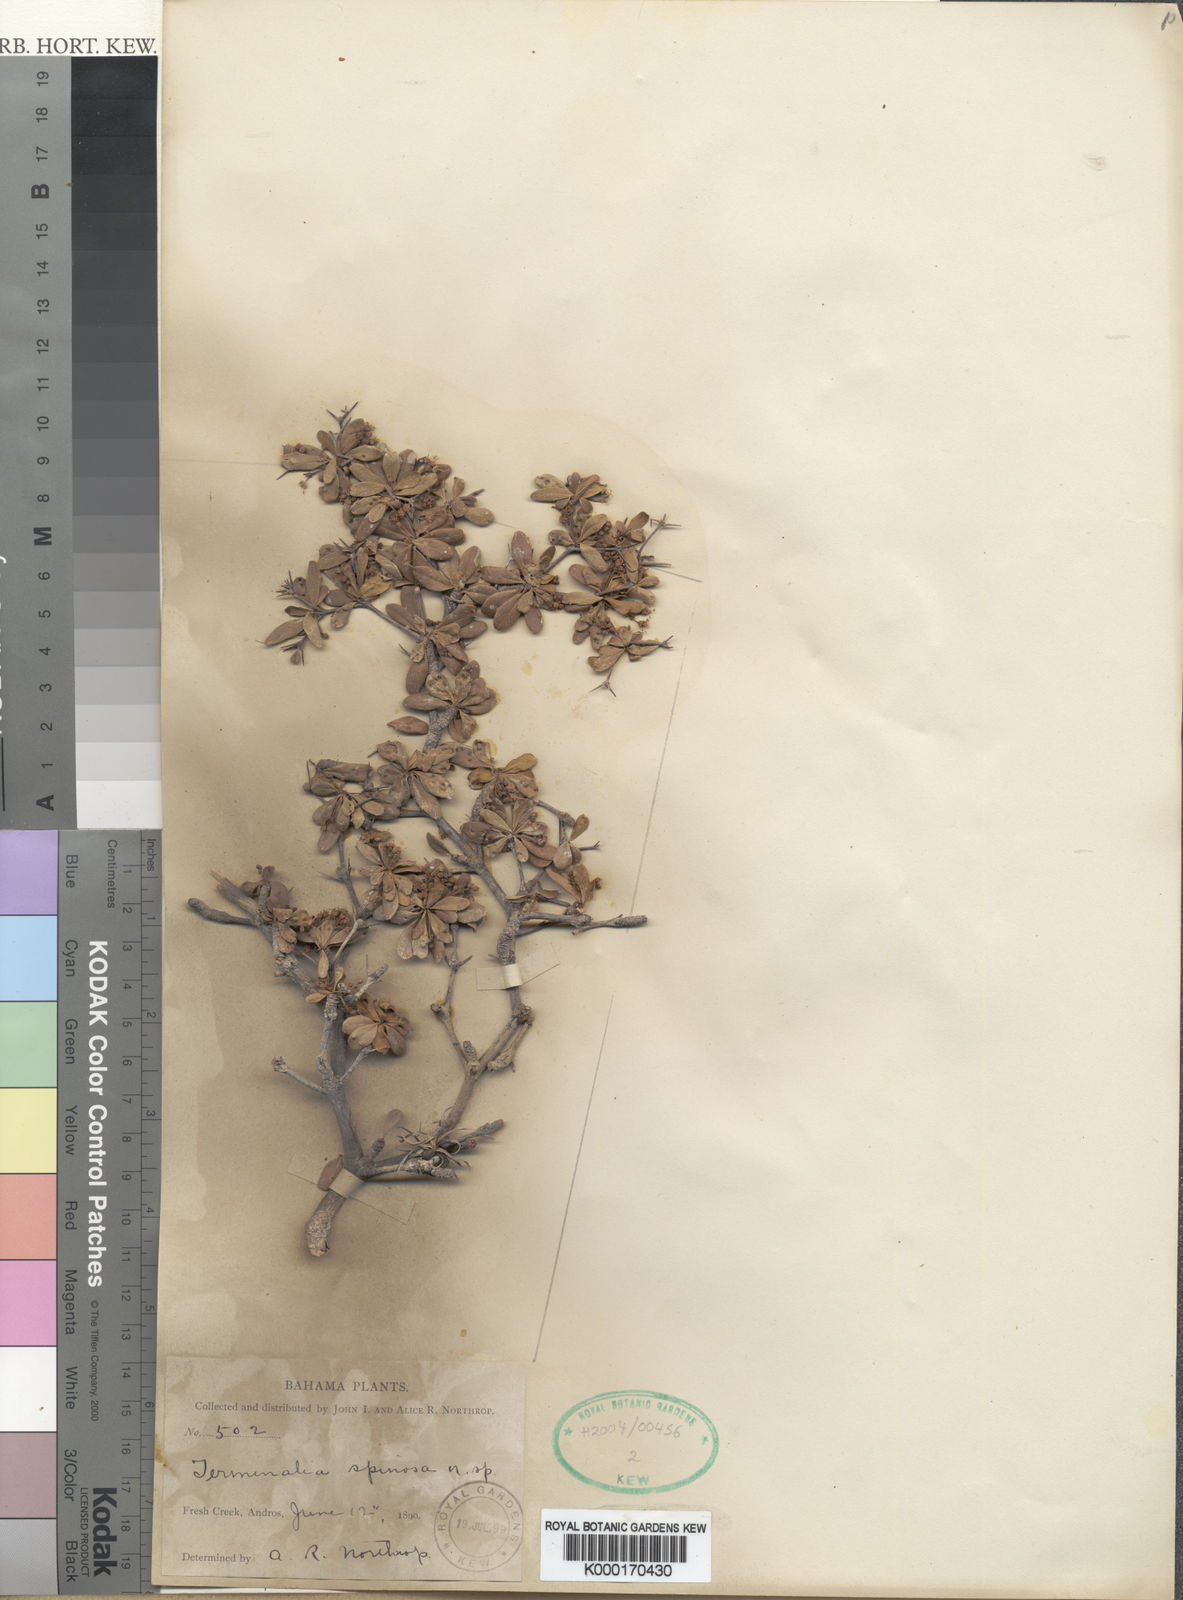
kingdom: Plantae
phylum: Tracheophyta
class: Magnoliopsida
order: Myrtales
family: Combretaceae
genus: Terminalia
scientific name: Terminalia spinosa
